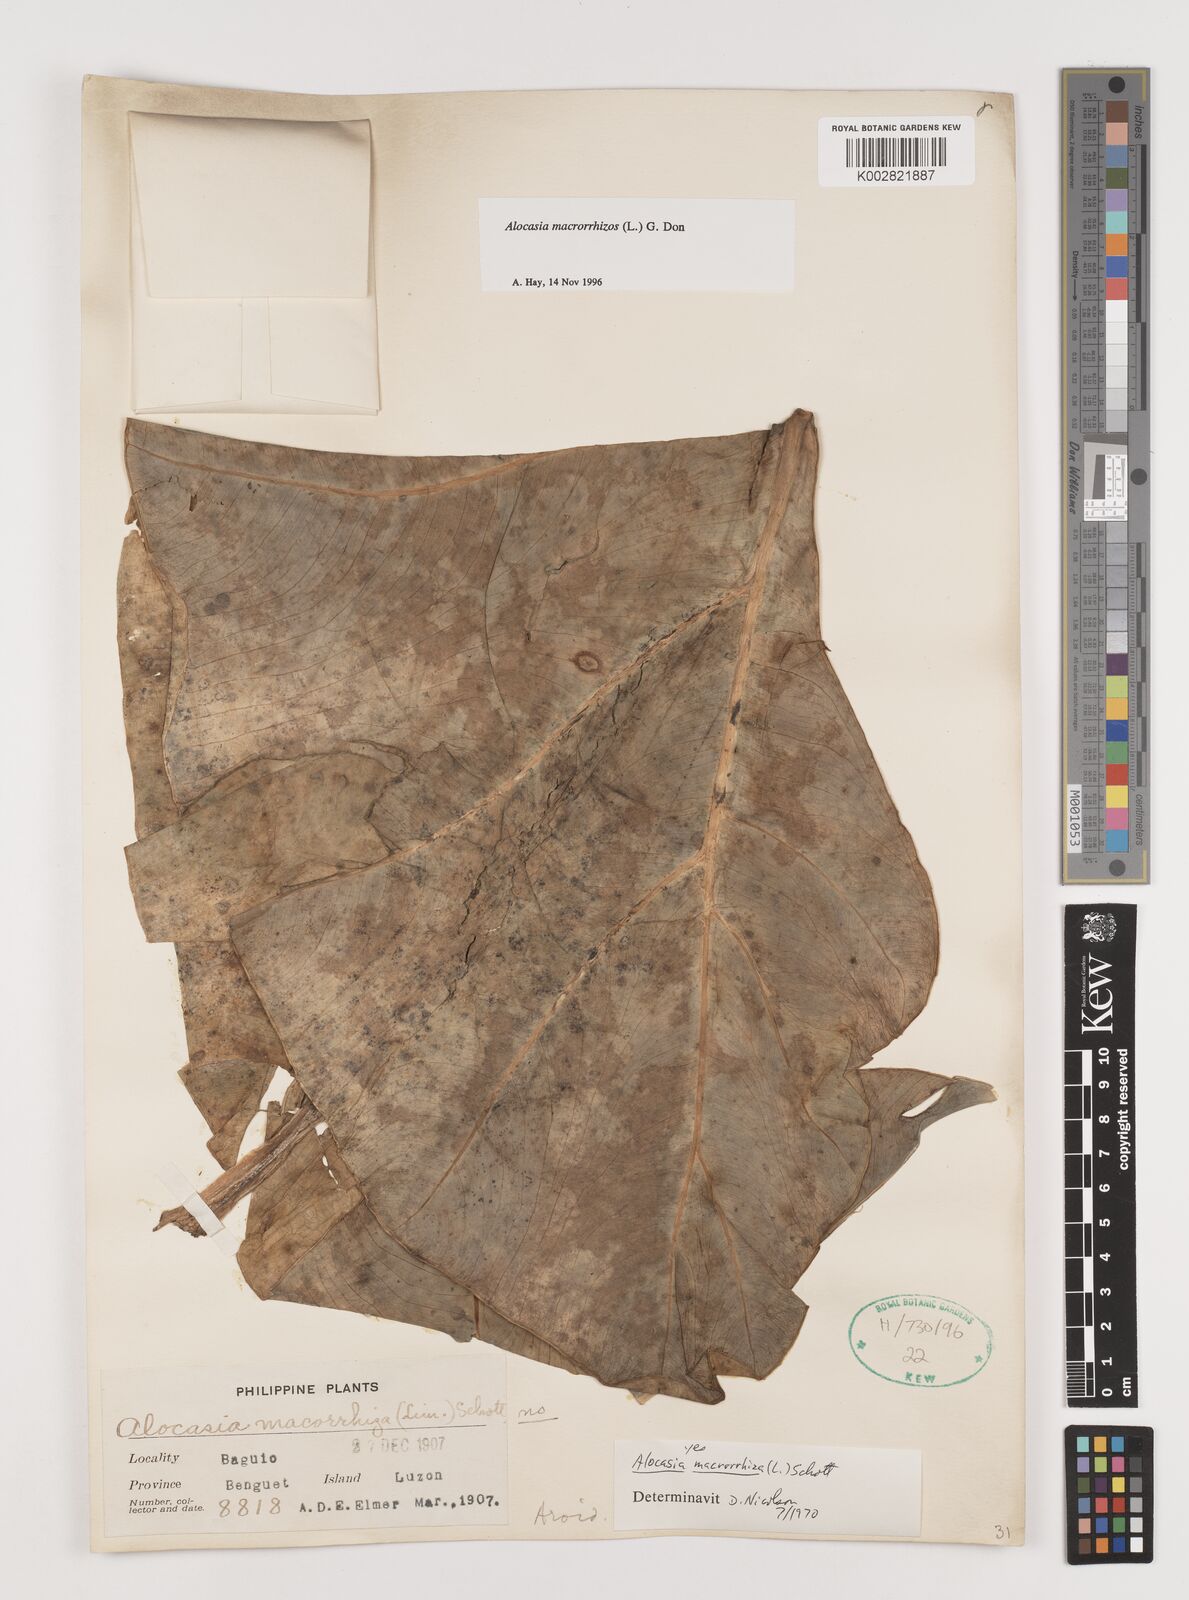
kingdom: Plantae
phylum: Tracheophyta
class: Liliopsida
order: Alismatales
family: Araceae
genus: Alocasia
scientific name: Alocasia macrorrhizos
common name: Giant taro
